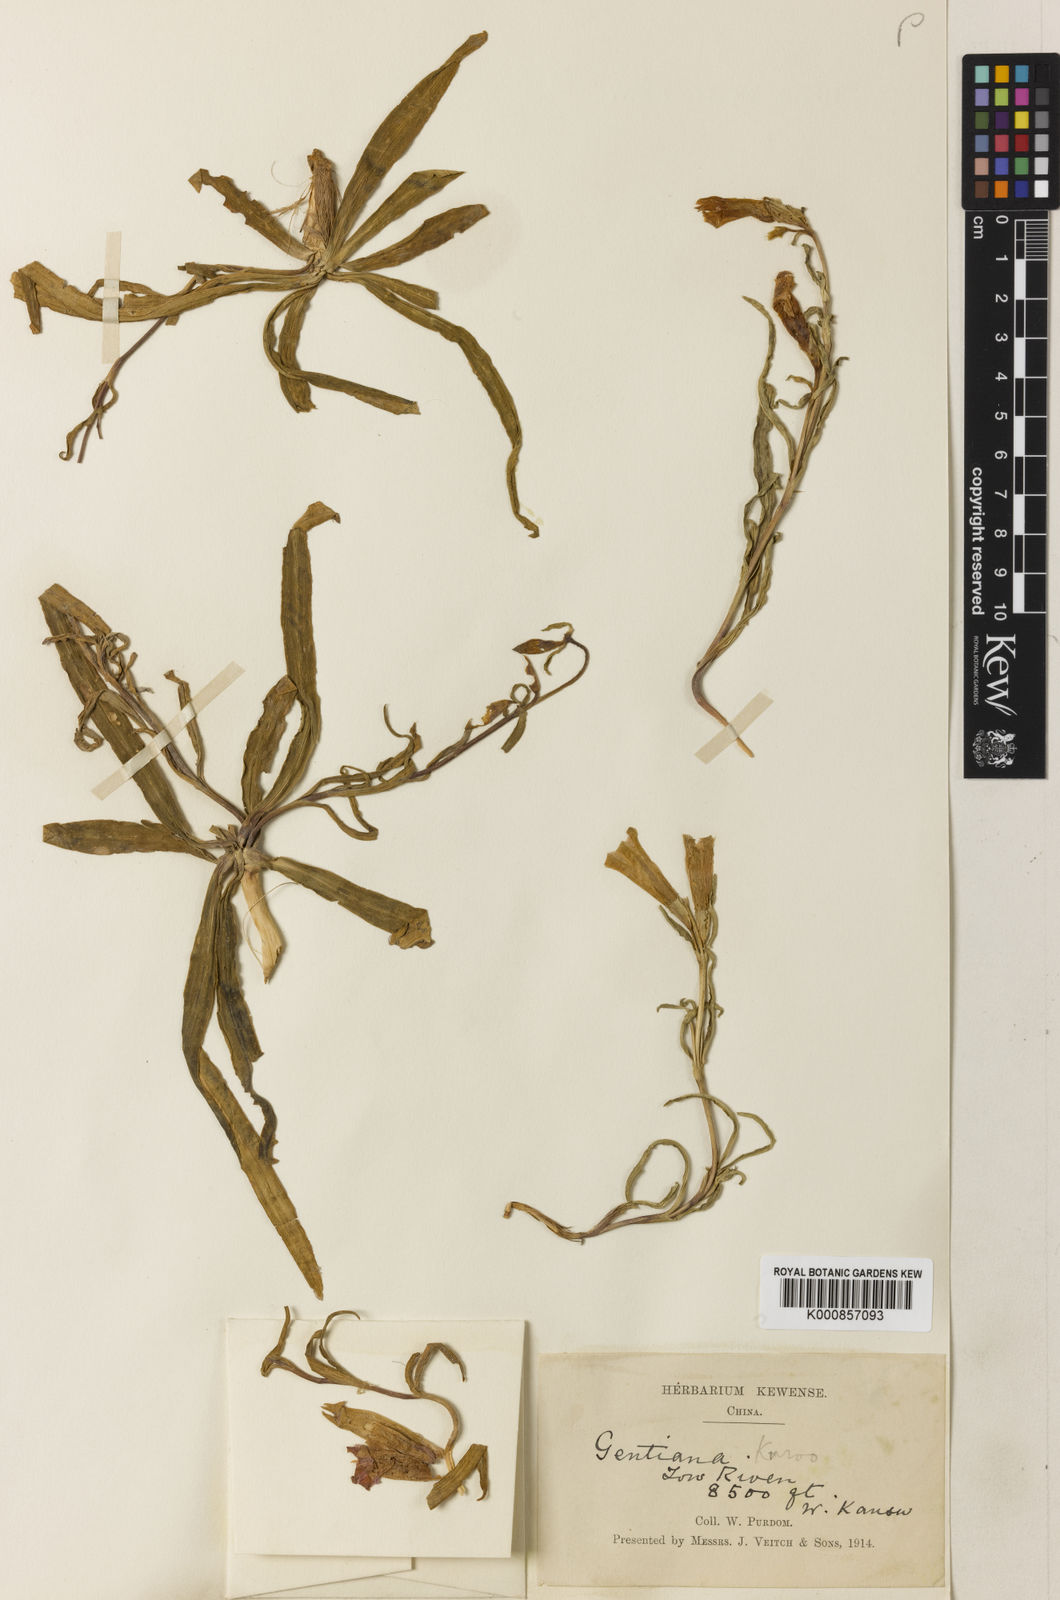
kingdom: Plantae
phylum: Tracheophyta
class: Magnoliopsida
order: Gentianales
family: Gentianaceae
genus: Gentiana
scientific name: Gentiana dahurica
